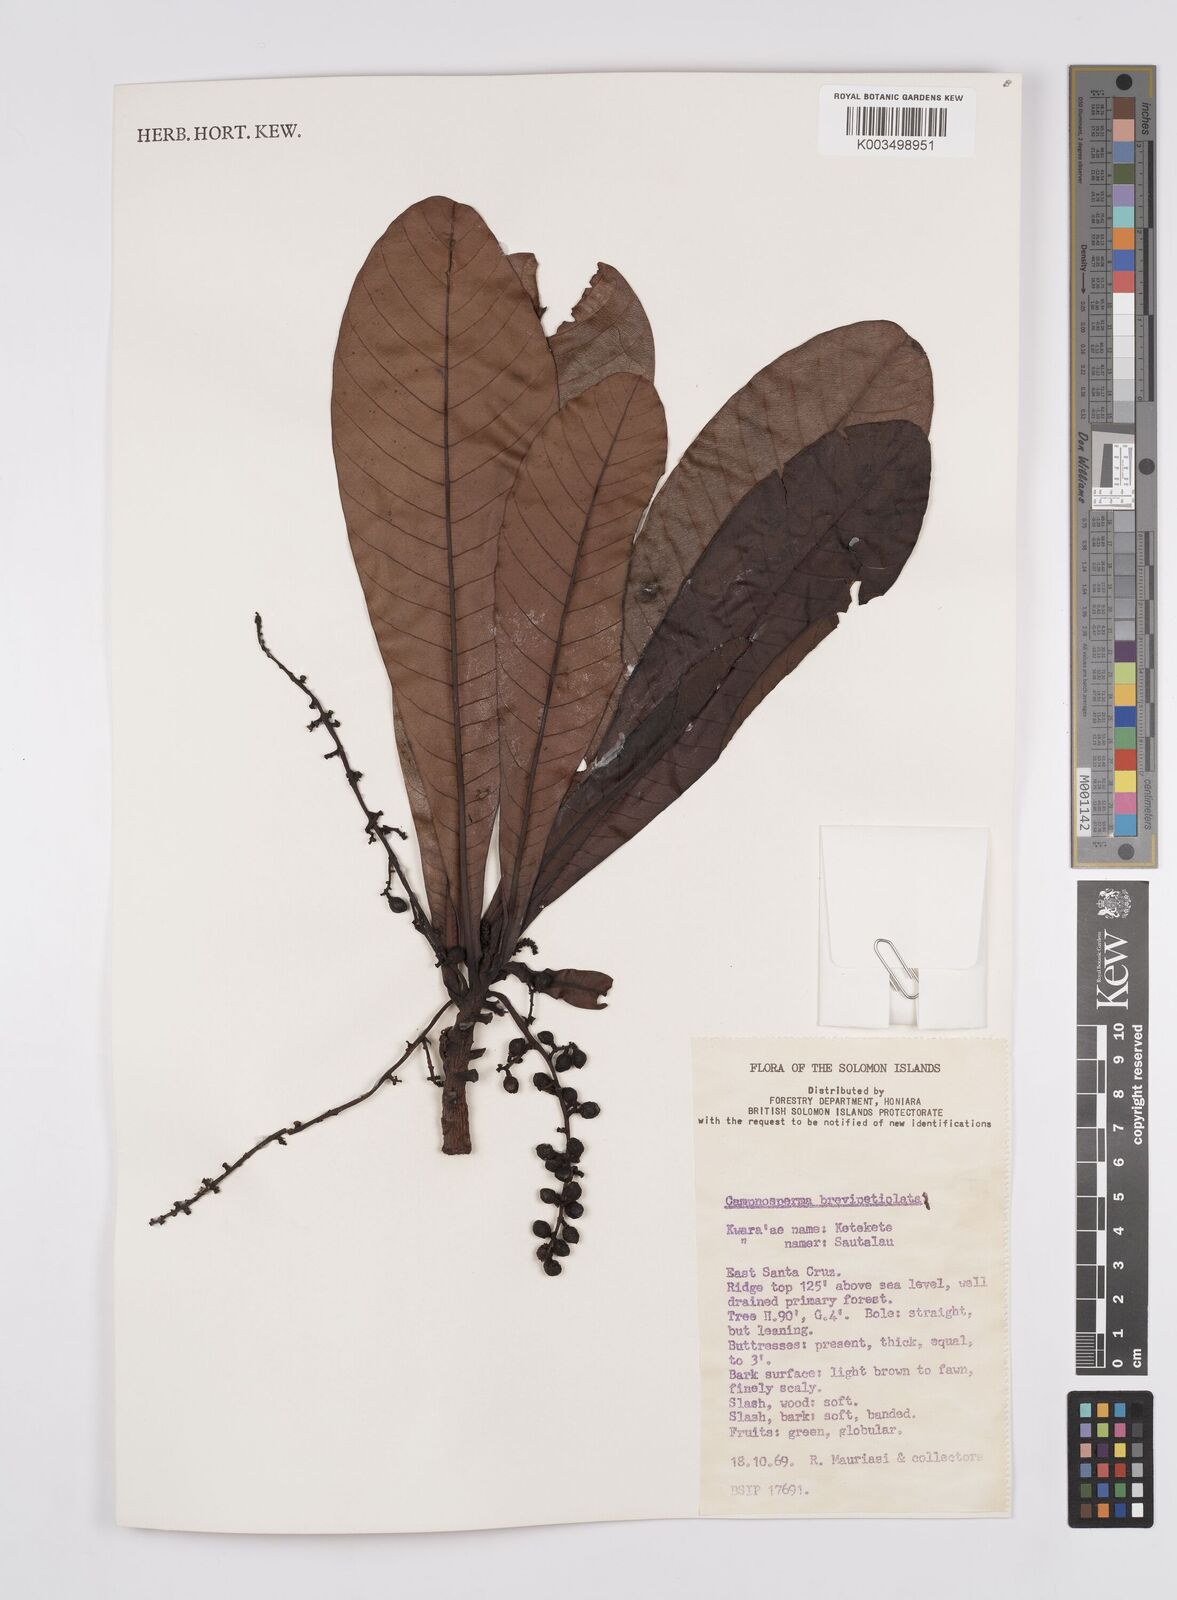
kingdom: Plantae
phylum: Tracheophyta
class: Magnoliopsida
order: Sapindales
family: Anacardiaceae
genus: Campnosperma
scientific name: Campnosperma brevipetiolatum
